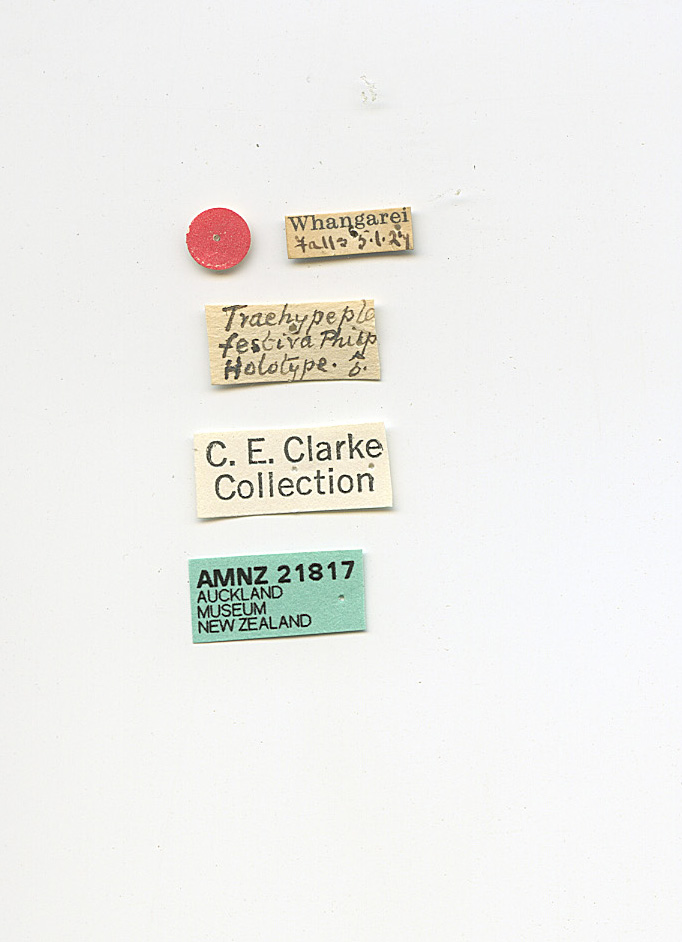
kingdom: Animalia
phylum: Arthropoda
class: Insecta
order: Lepidoptera
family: Oecophoridae
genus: Trachypepla
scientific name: Trachypepla festiva
